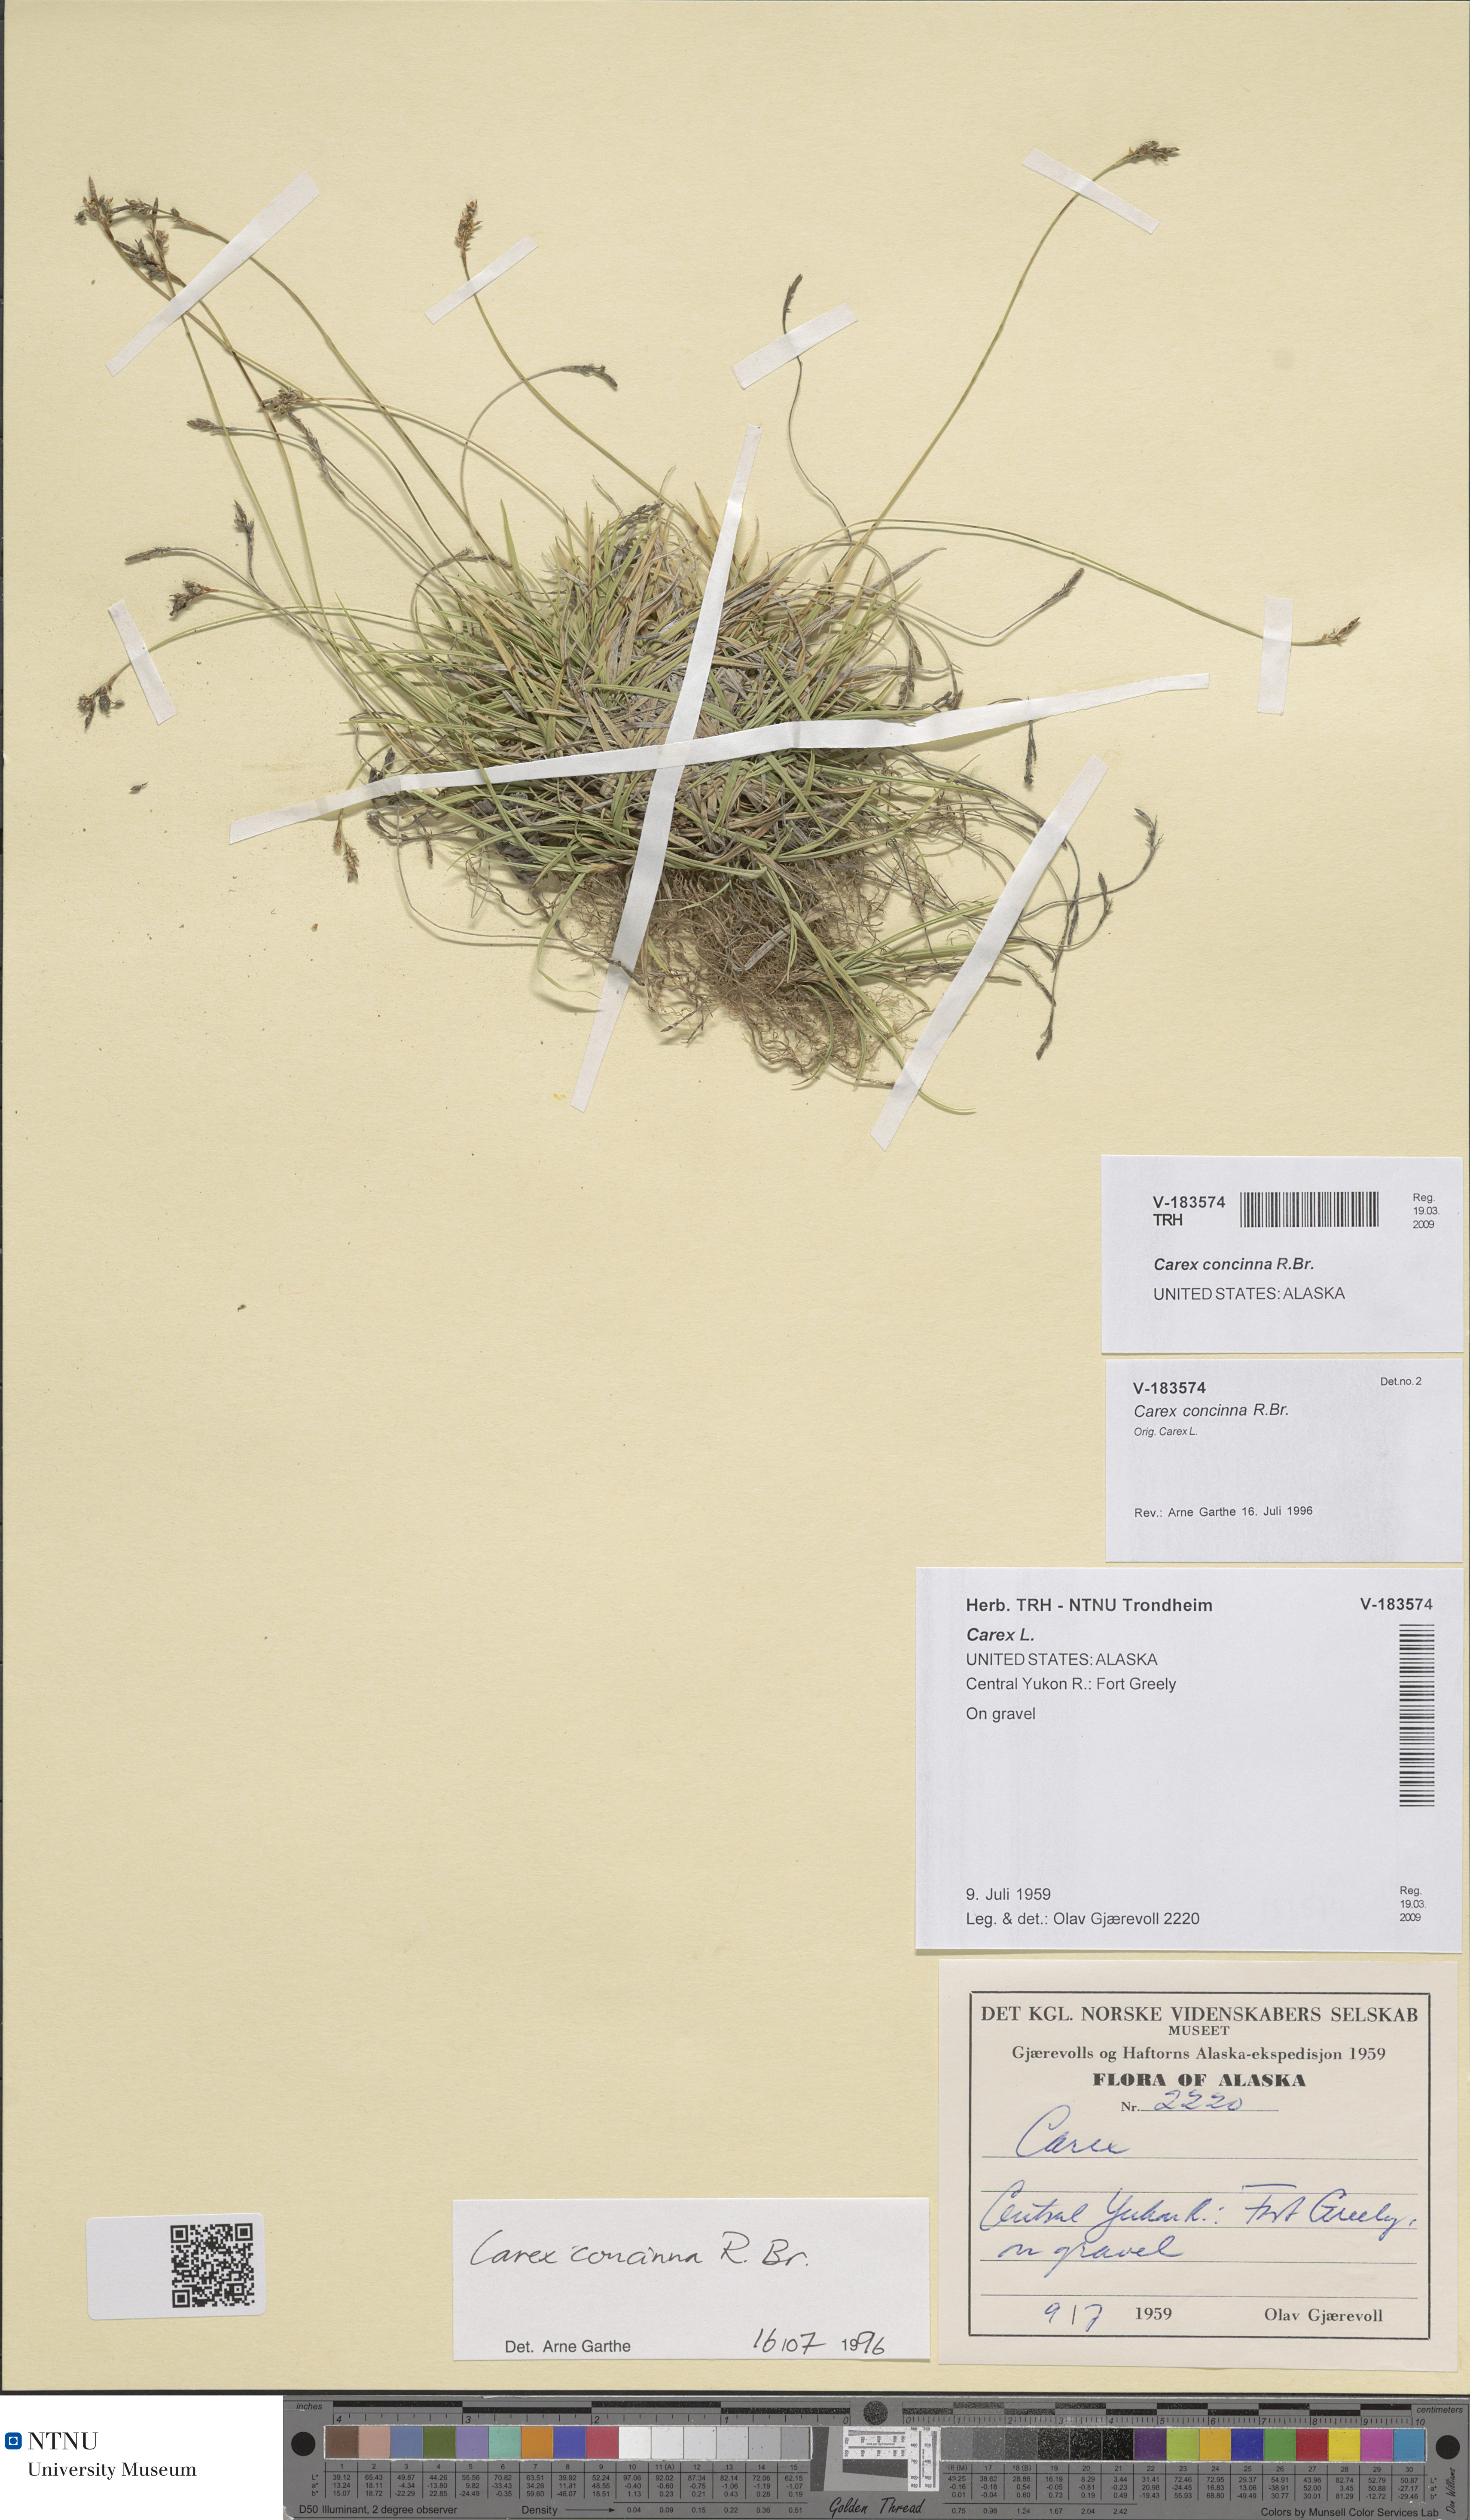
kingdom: Plantae
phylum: Tracheophyta
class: Liliopsida
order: Poales
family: Cyperaceae
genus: Carex
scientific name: Carex concinna
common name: Beautiful sedge
